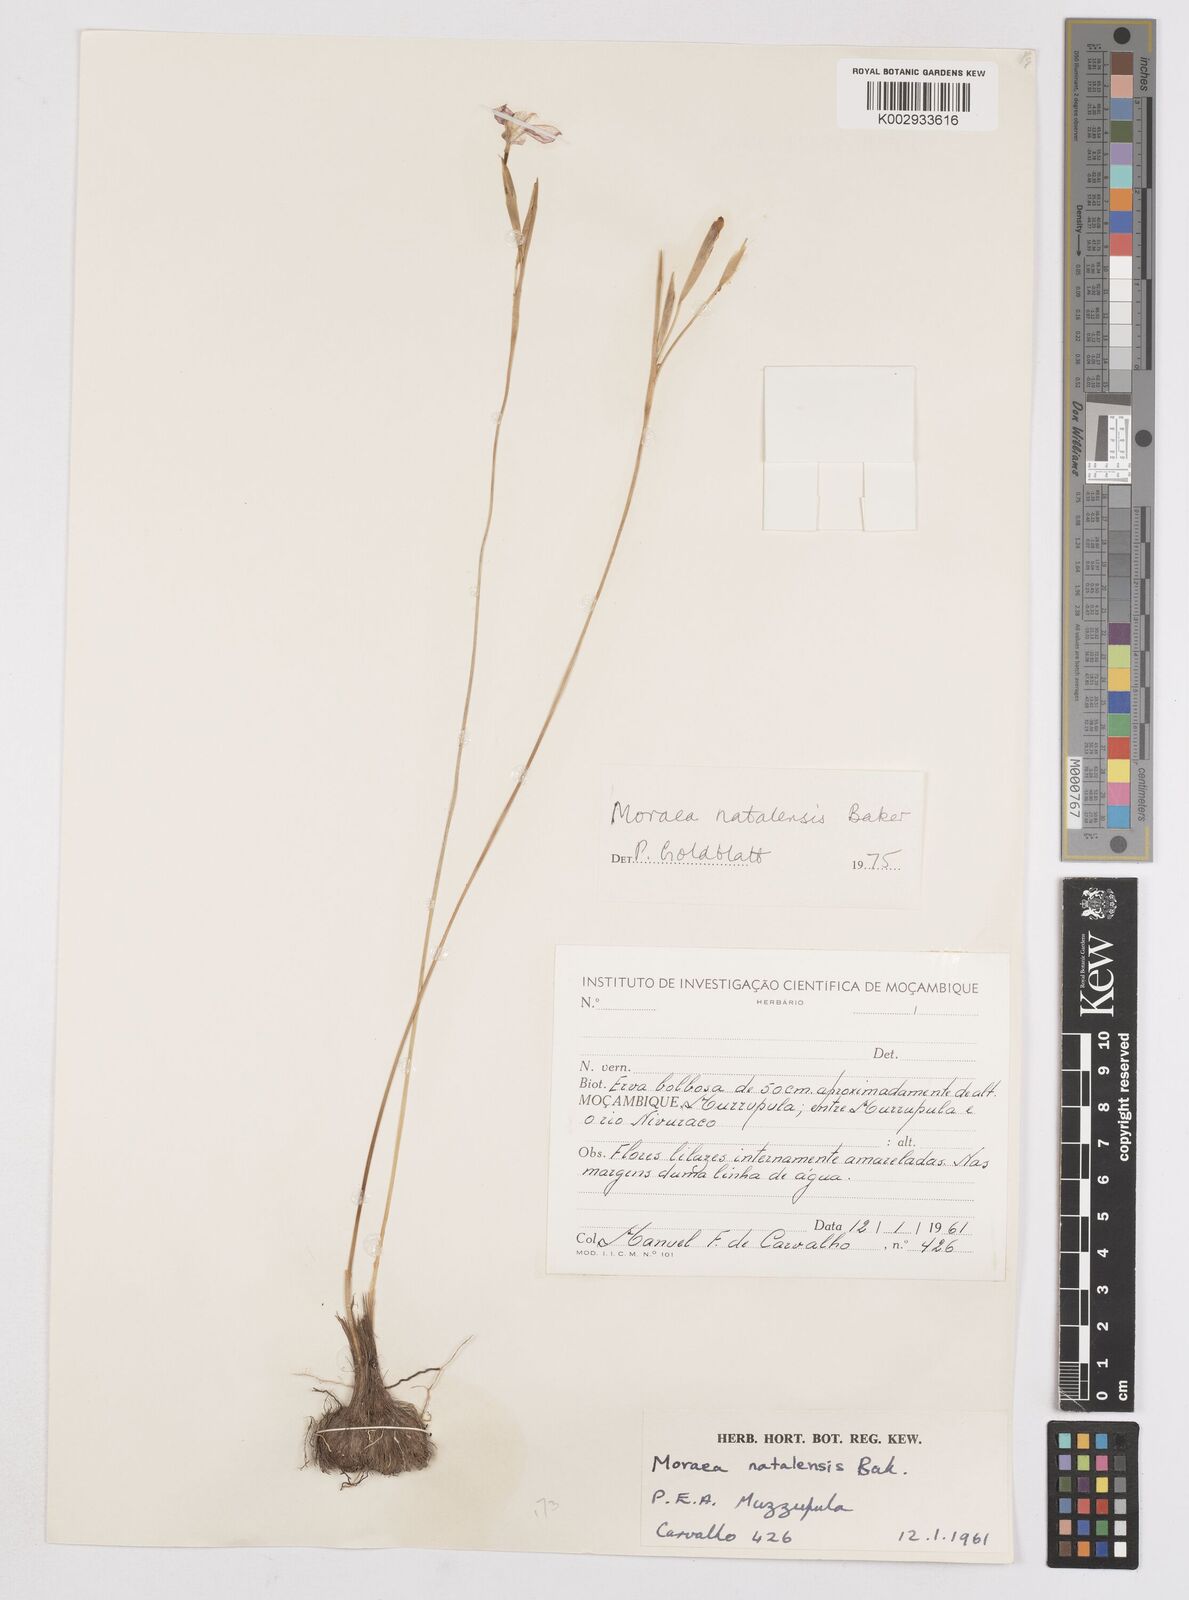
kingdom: Plantae
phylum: Tracheophyta
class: Liliopsida
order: Asparagales
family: Iridaceae
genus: Moraea
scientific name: Moraea natalensis
